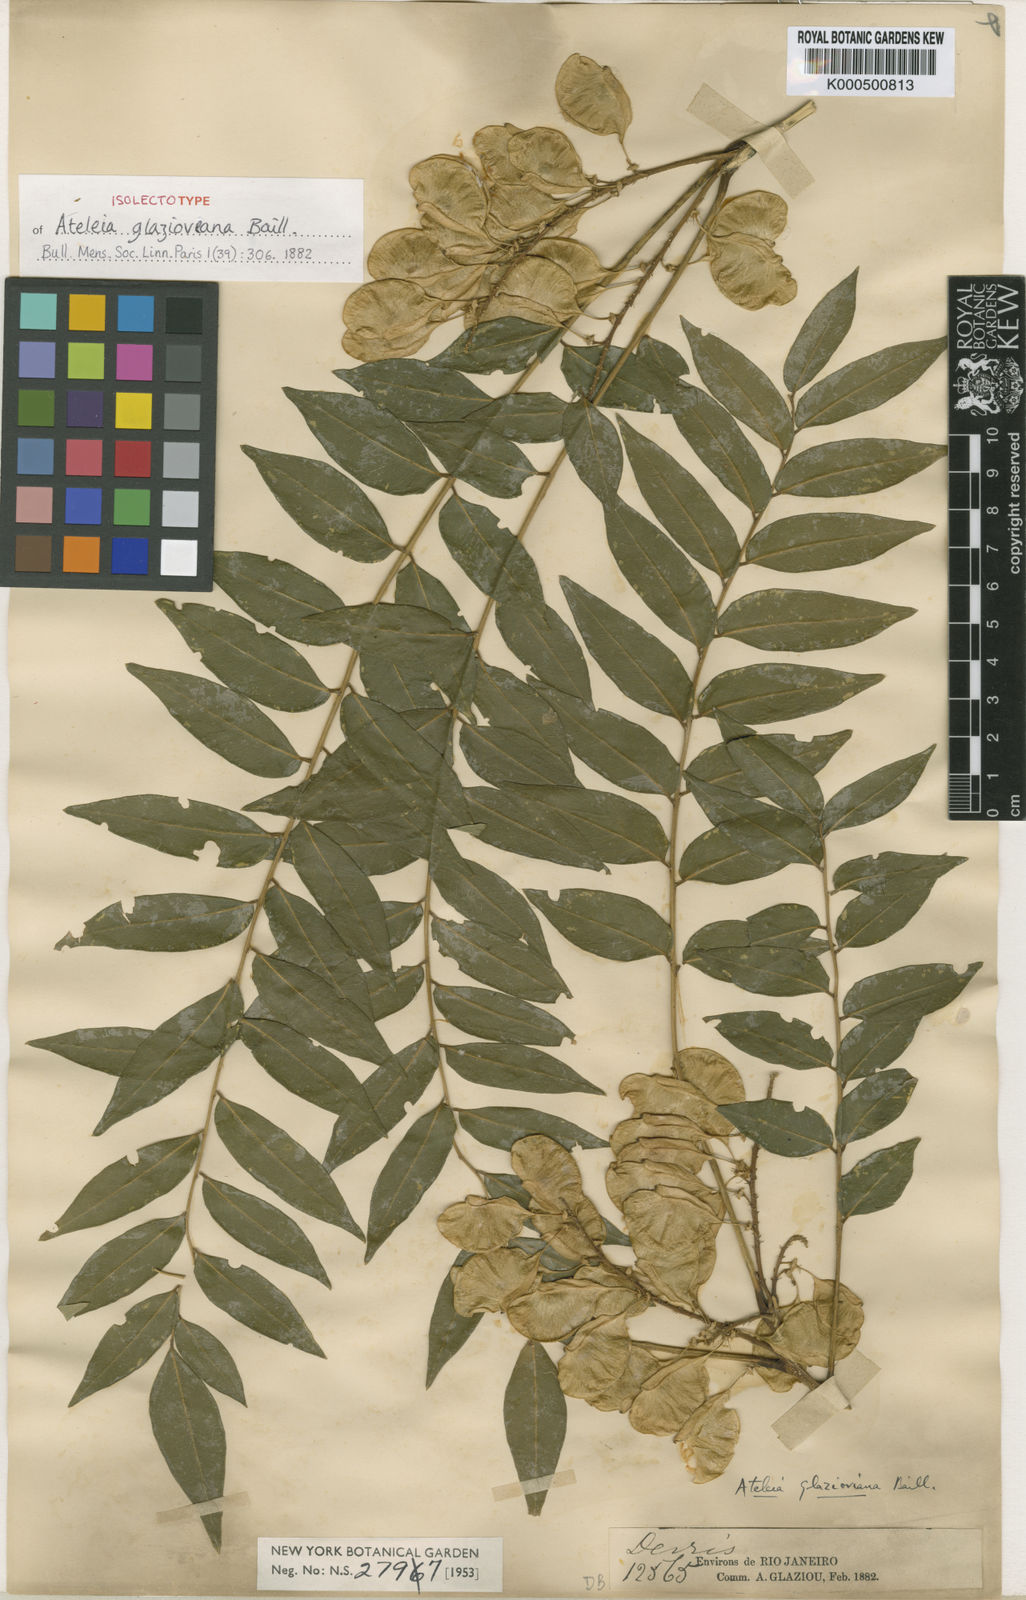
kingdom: Plantae
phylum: Tracheophyta
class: Magnoliopsida
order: Fabales
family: Fabaceae
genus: Ateleia
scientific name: Ateleia glazioveana
